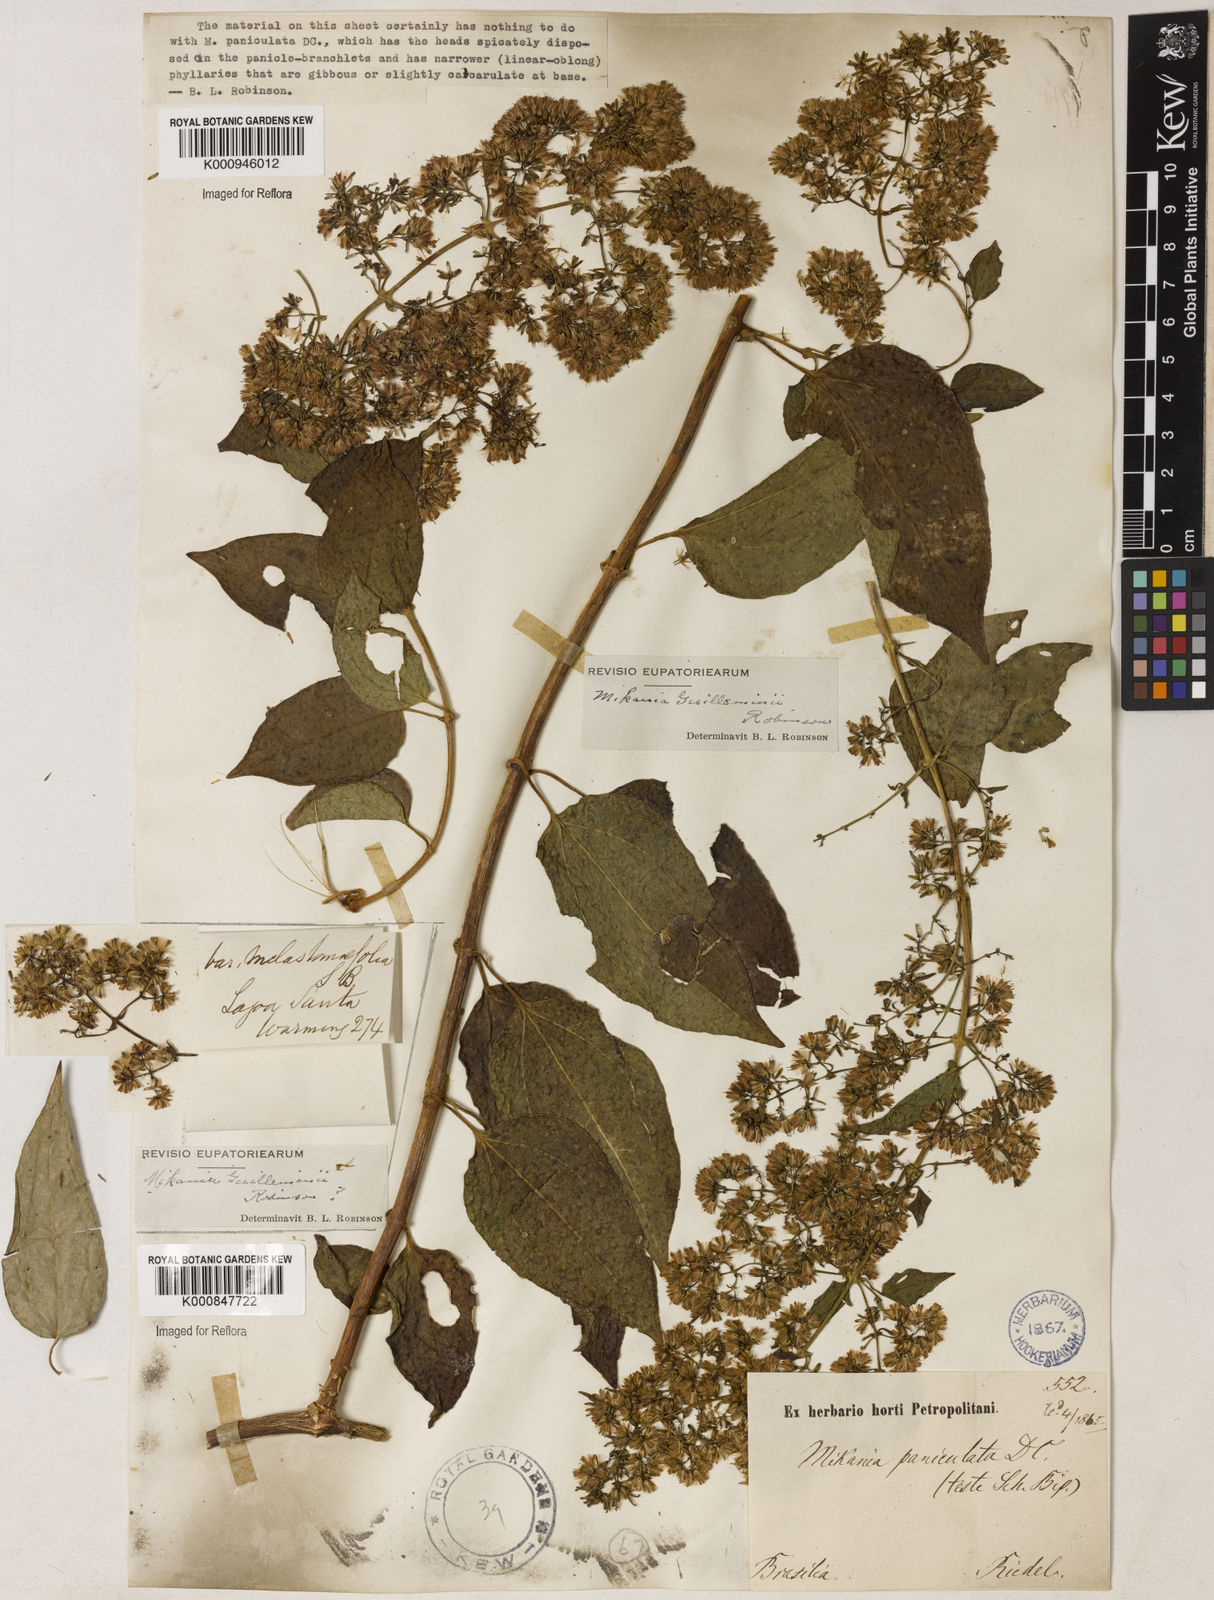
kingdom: Plantae
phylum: Tracheophyta
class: Magnoliopsida
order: Asterales
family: Asteraceae
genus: Mikania
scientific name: Mikania guilleminii
